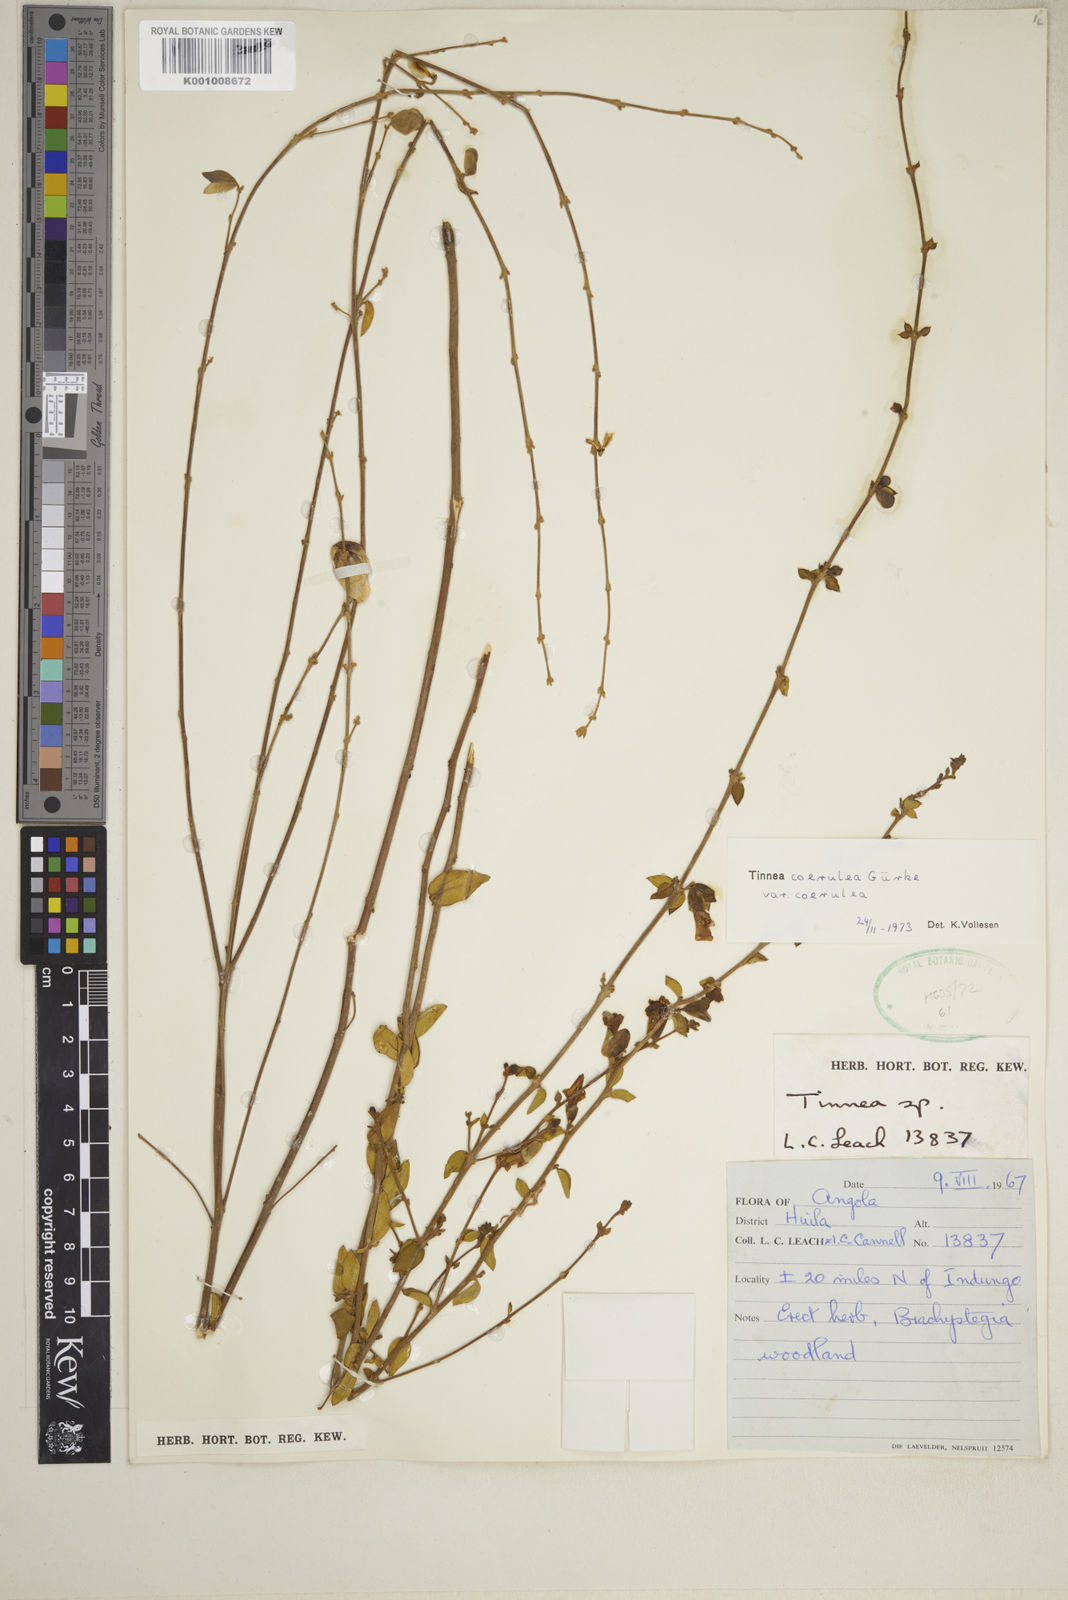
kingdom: Plantae
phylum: Tracheophyta
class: Magnoliopsida
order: Lamiales
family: Lamiaceae
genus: Tinnea
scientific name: Tinnea
